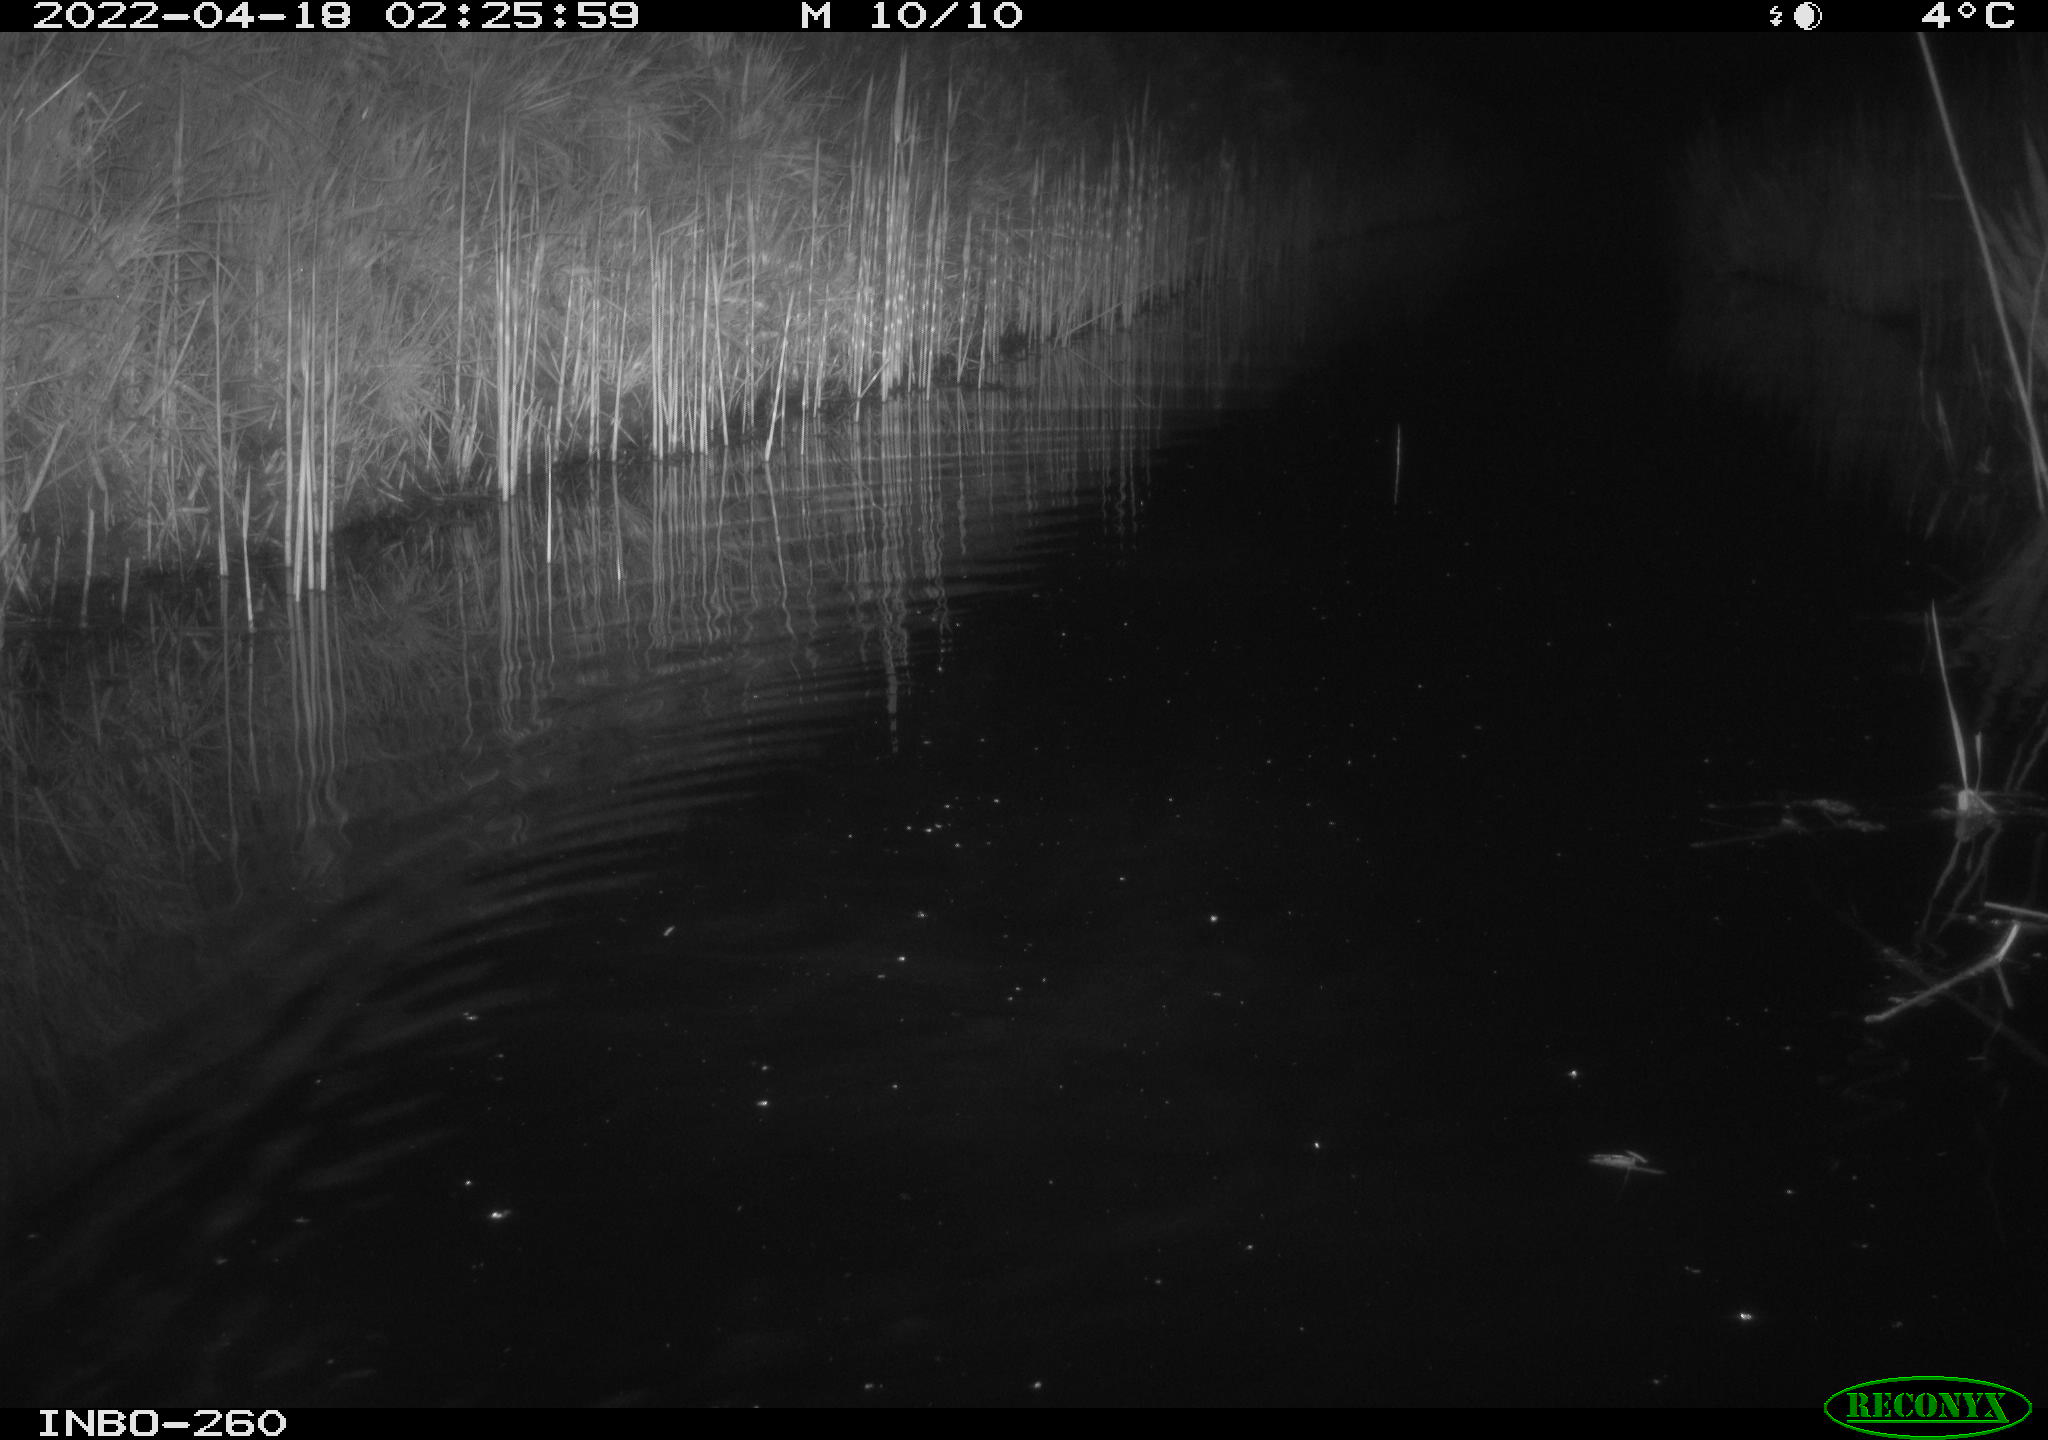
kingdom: Animalia
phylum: Chordata
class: Mammalia
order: Rodentia
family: Muridae
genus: Rattus
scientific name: Rattus norvegicus
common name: Brown rat
